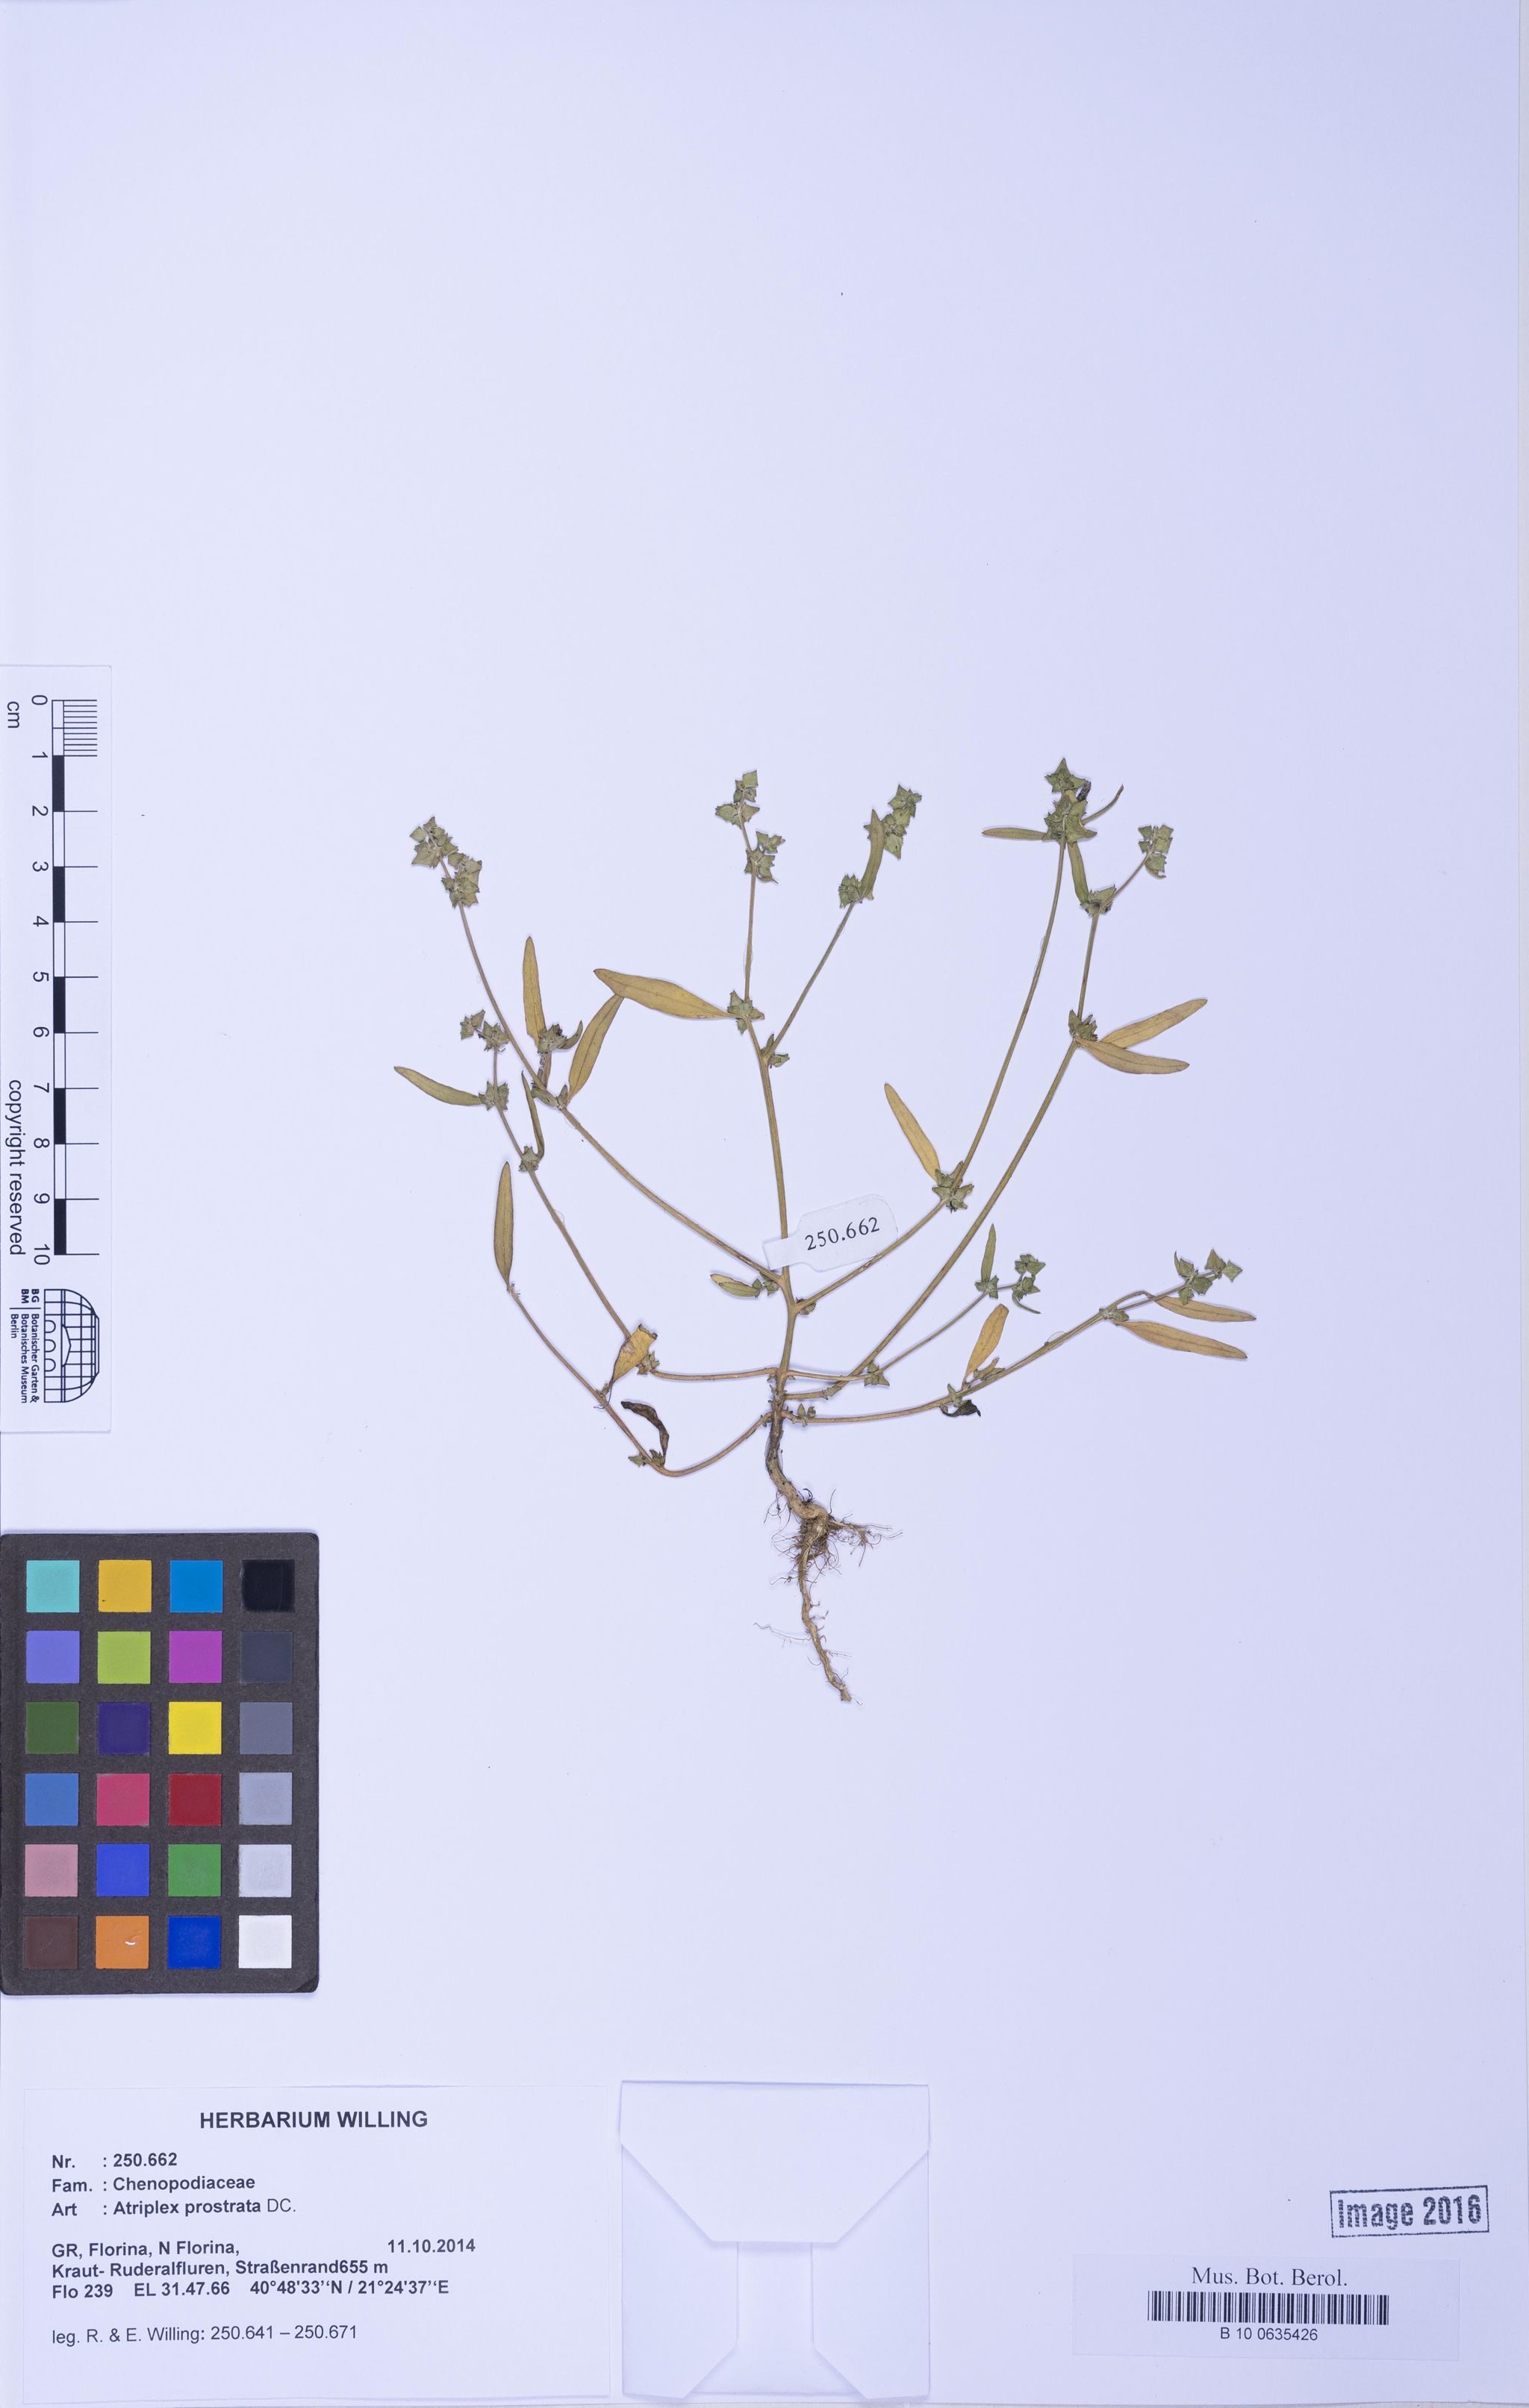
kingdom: Plantae
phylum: Tracheophyta
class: Magnoliopsida
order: Caryophyllales
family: Amaranthaceae
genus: Atriplex
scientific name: Atriplex prostrata
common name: Spear-leaved orache
